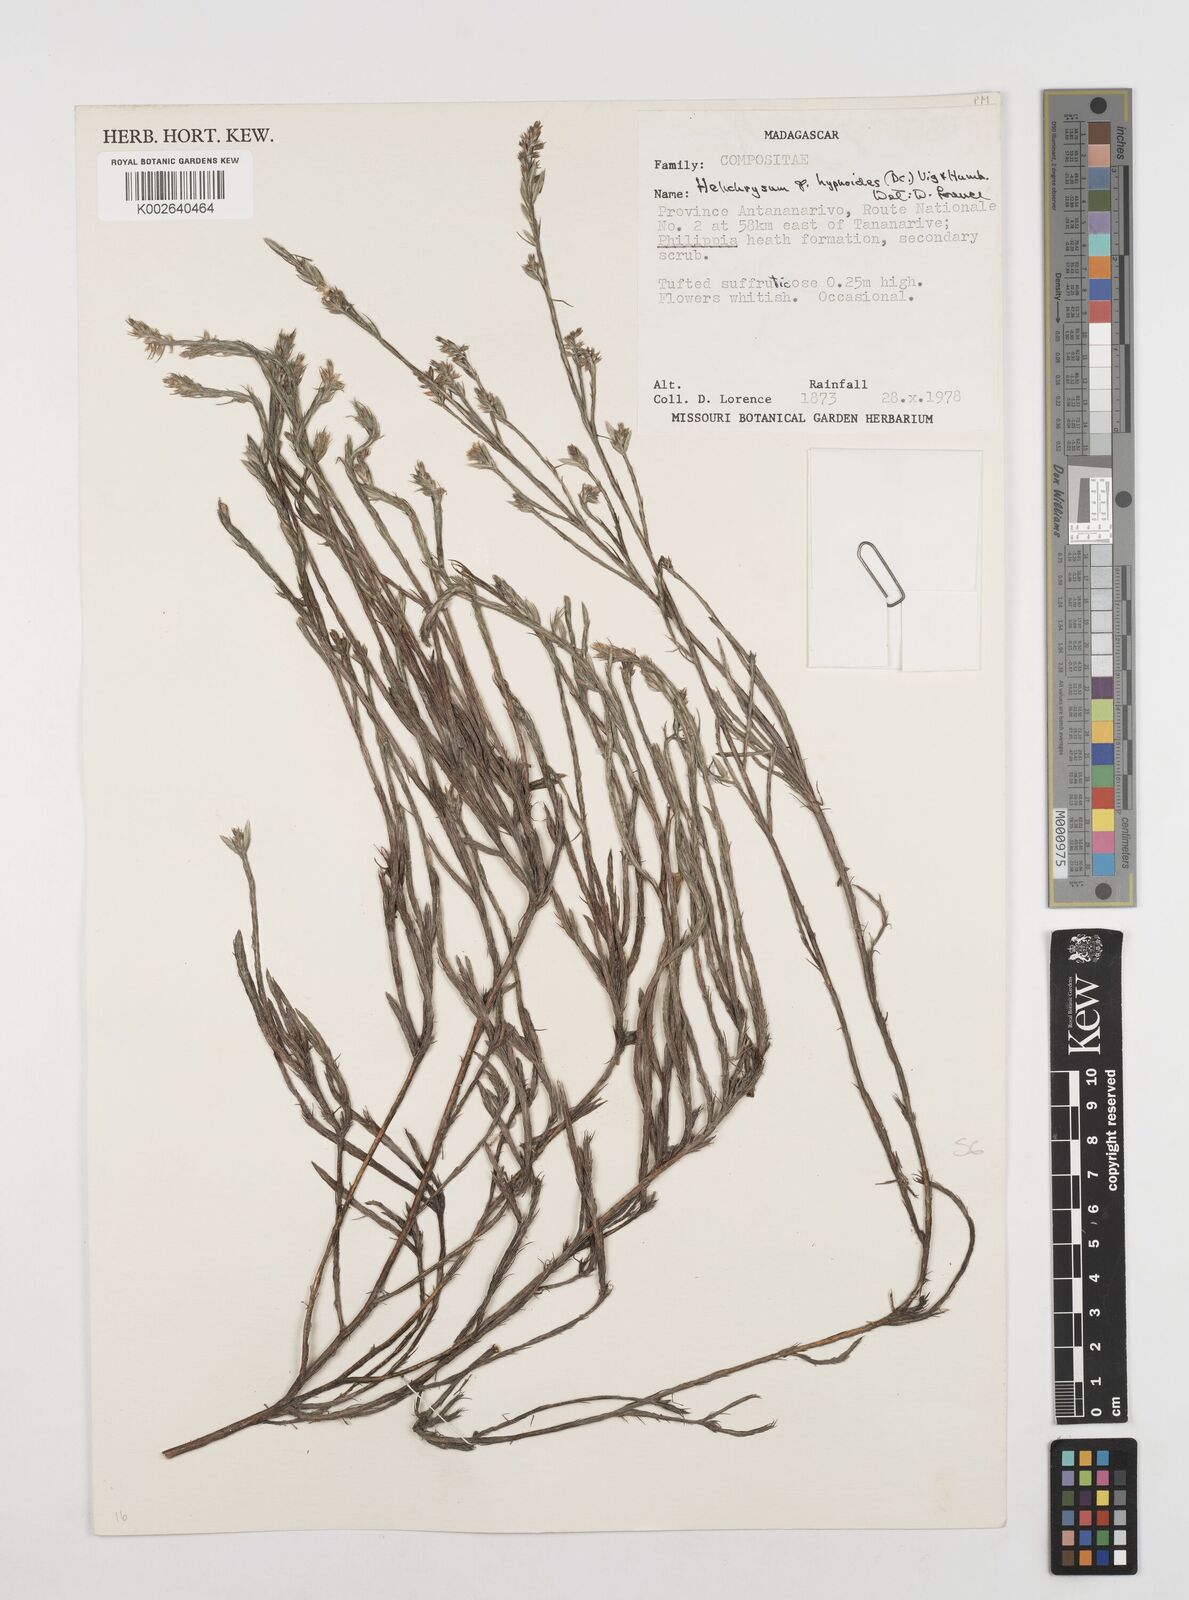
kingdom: Plantae
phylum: Tracheophyta
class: Magnoliopsida
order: Asterales
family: Asteraceae
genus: Aphelexis
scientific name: Aphelexis hypnoides
